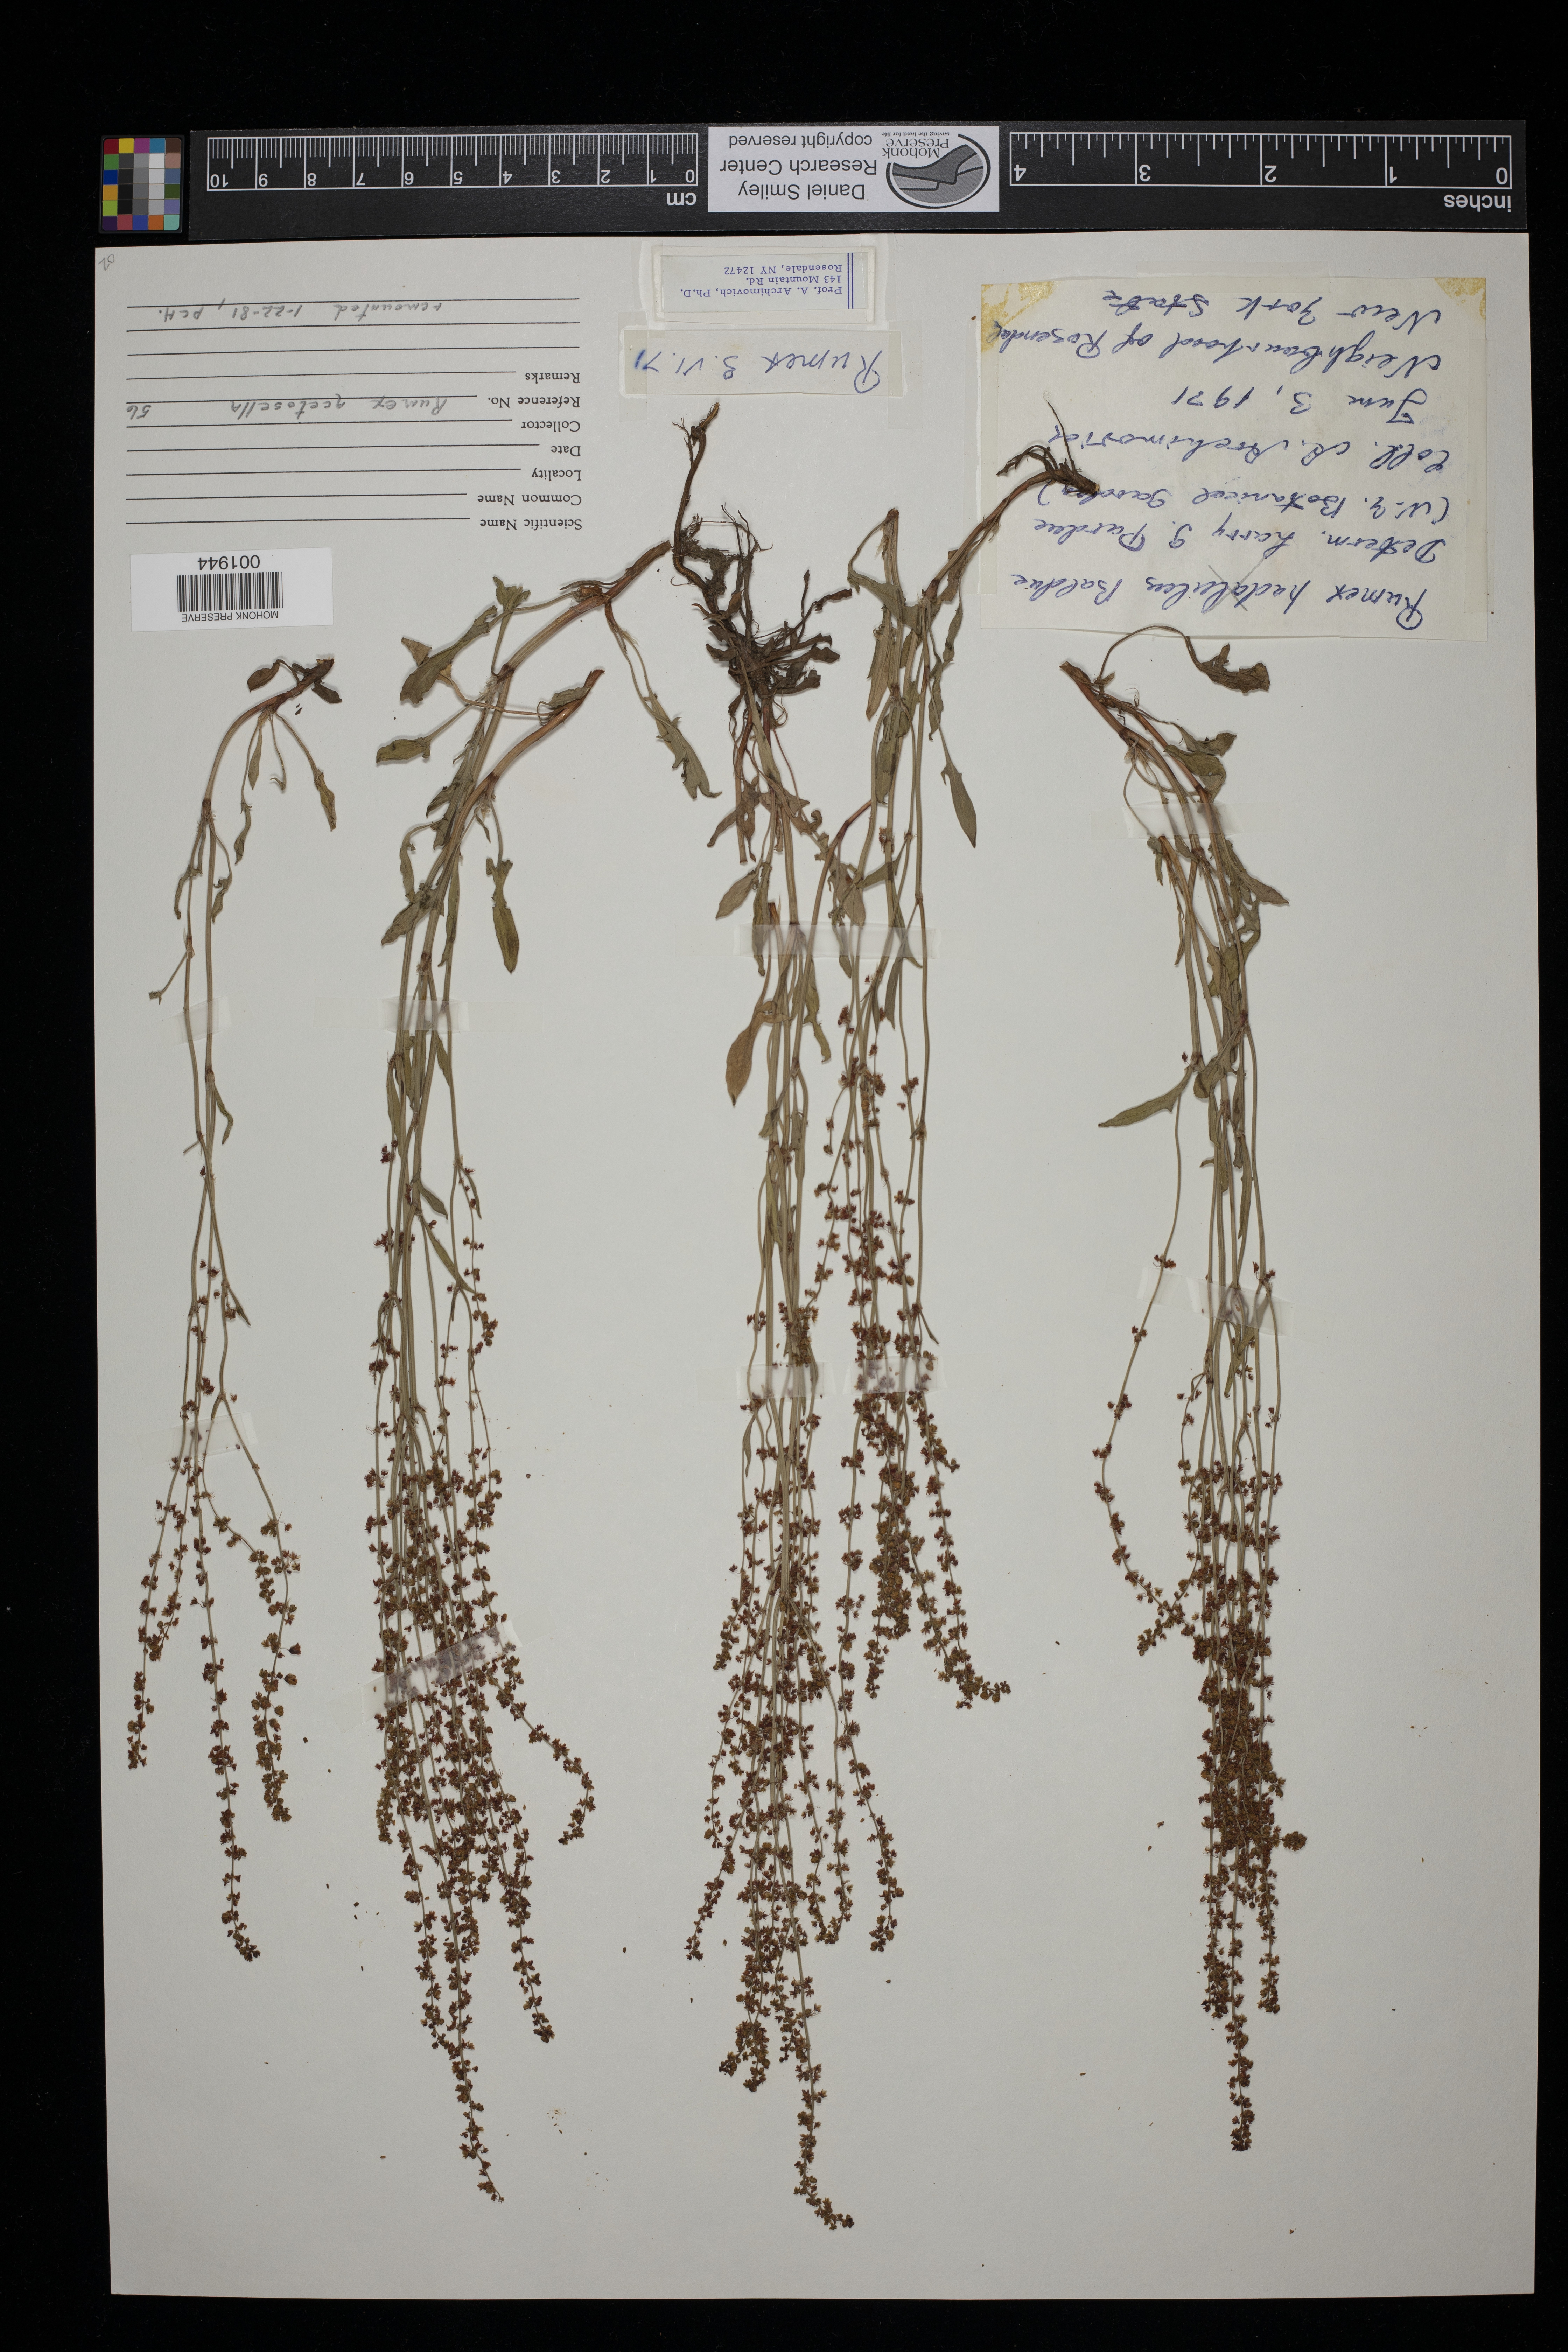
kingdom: Plantae
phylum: Tracheophyta
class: Magnoliopsida
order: Caryophyllales
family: Polygonaceae
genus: Rumex
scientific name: Rumex acetosella
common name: Common sheep sorrel
